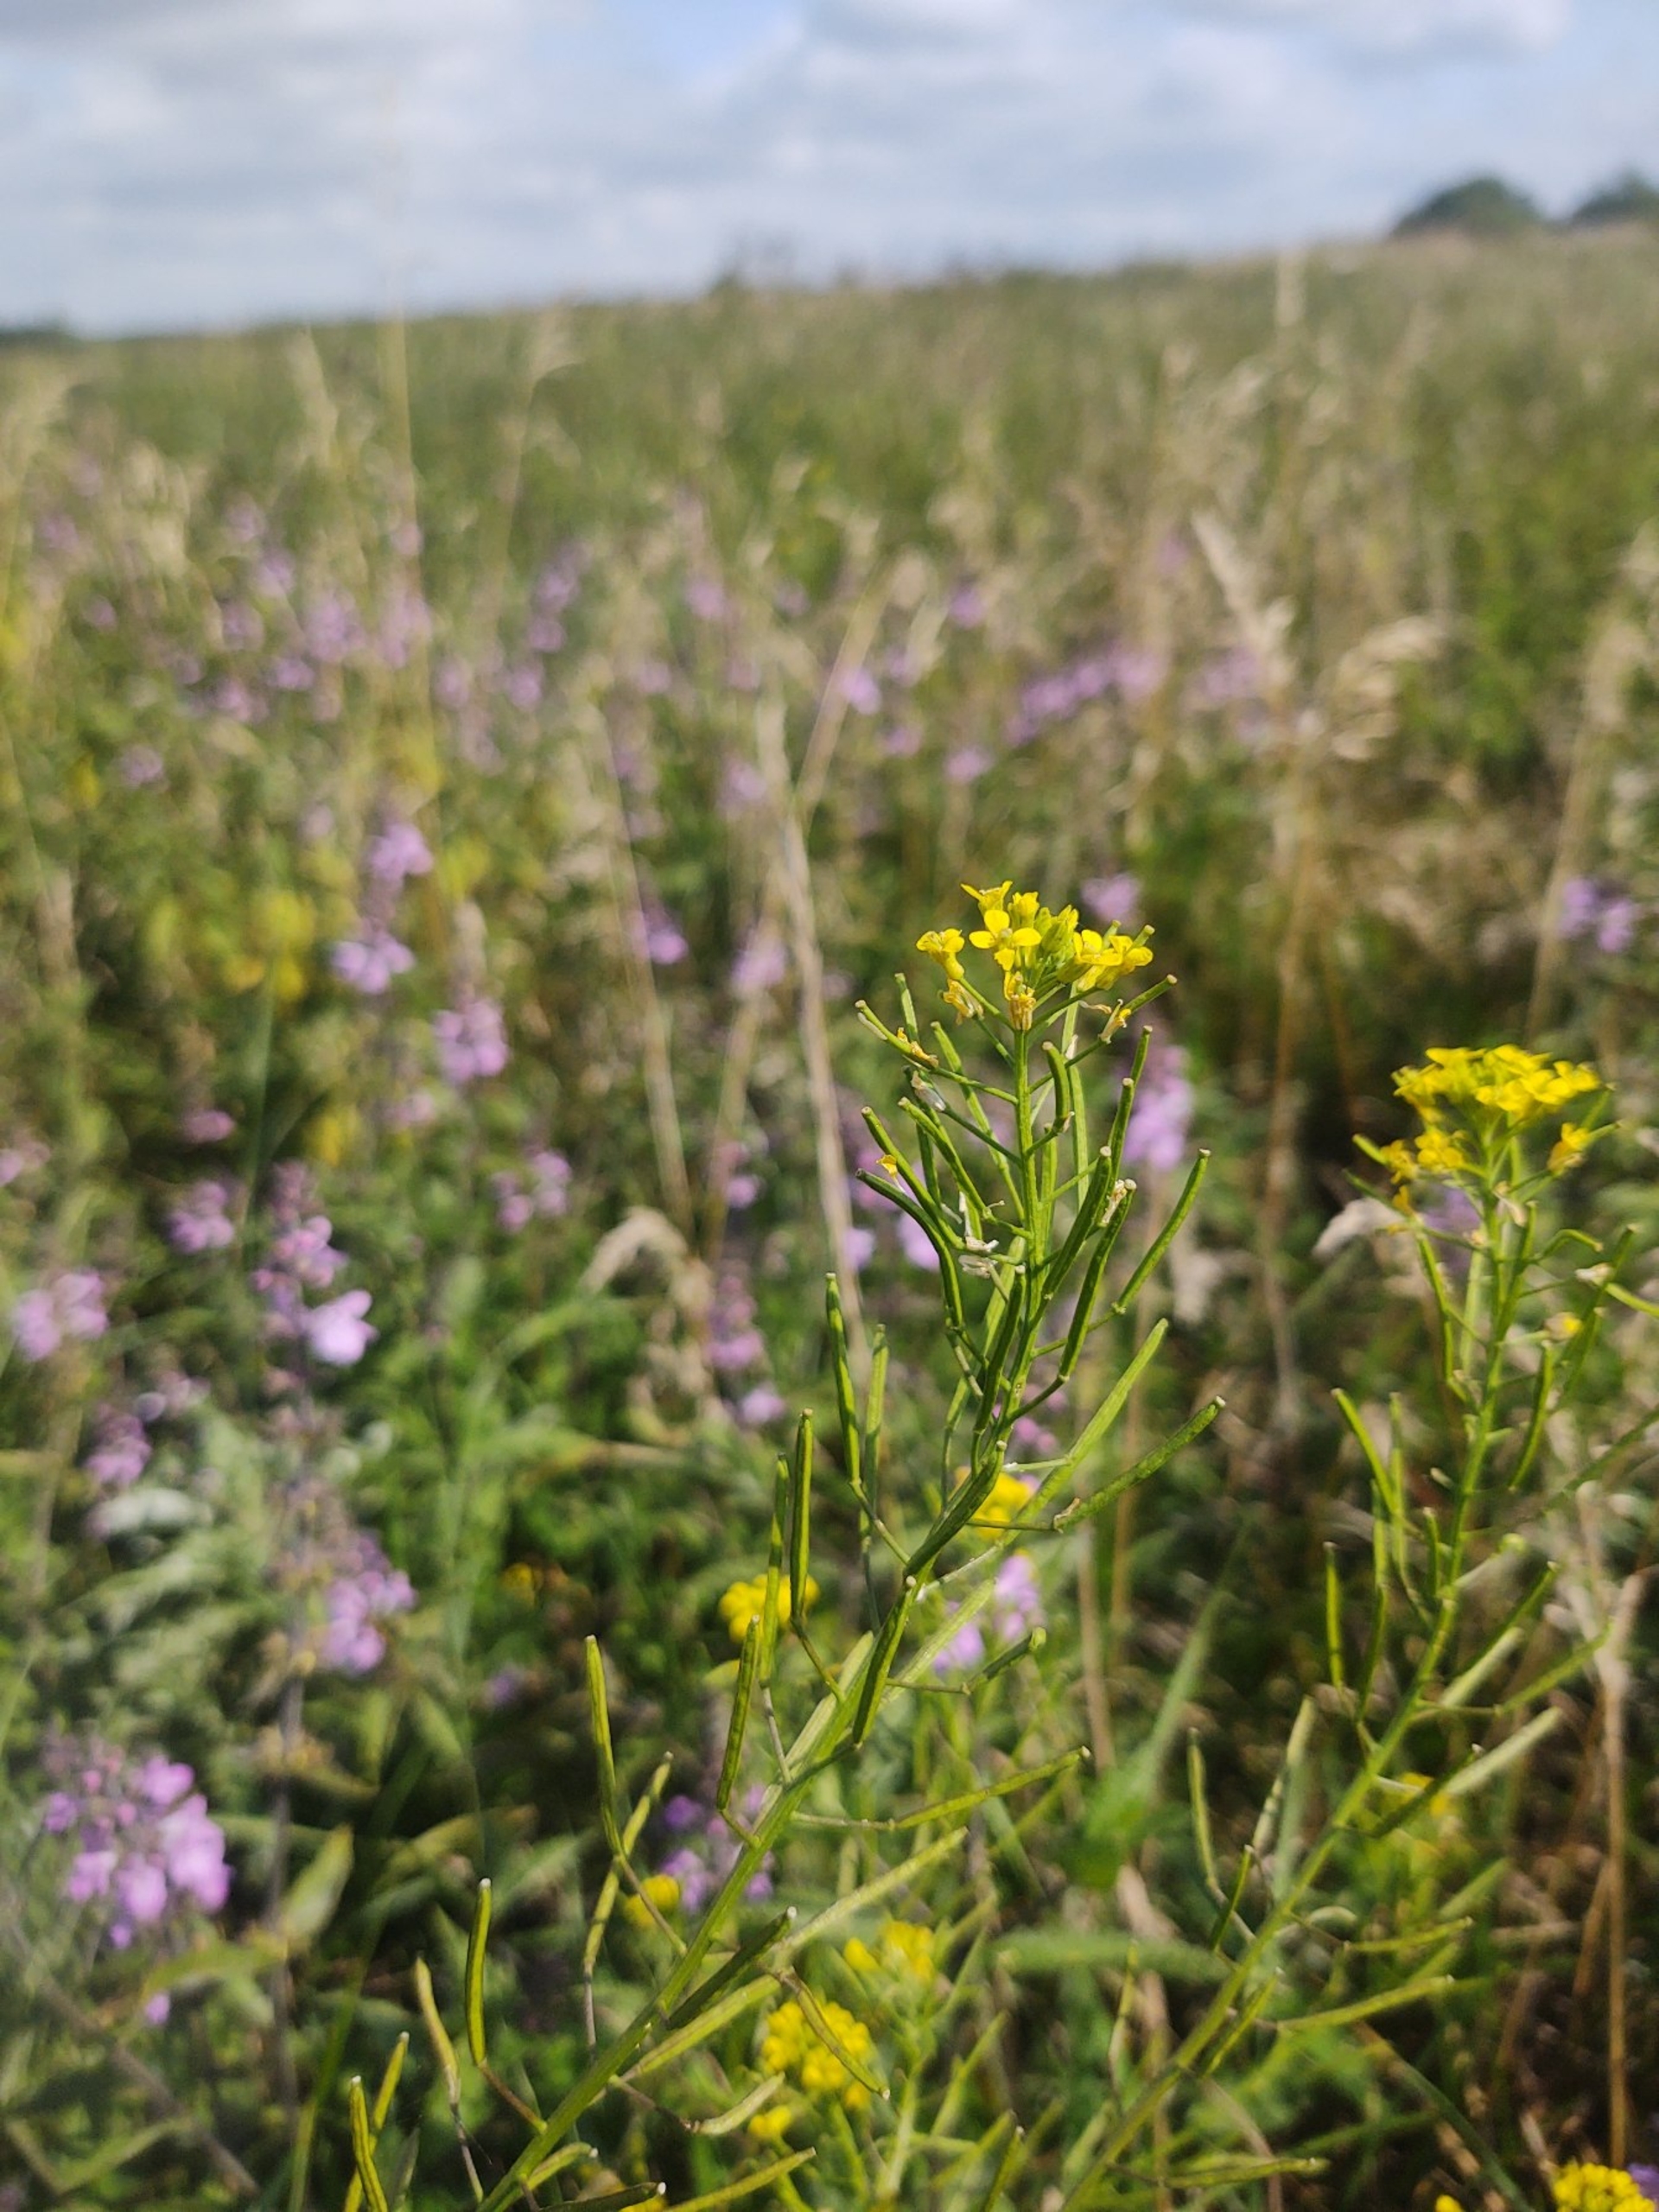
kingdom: Plantae
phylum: Tracheophyta
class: Magnoliopsida
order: Brassicales
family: Brassicaceae
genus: Erysimum
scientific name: Erysimum cheiranthoides
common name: Gyldenlak-hjørneklap
